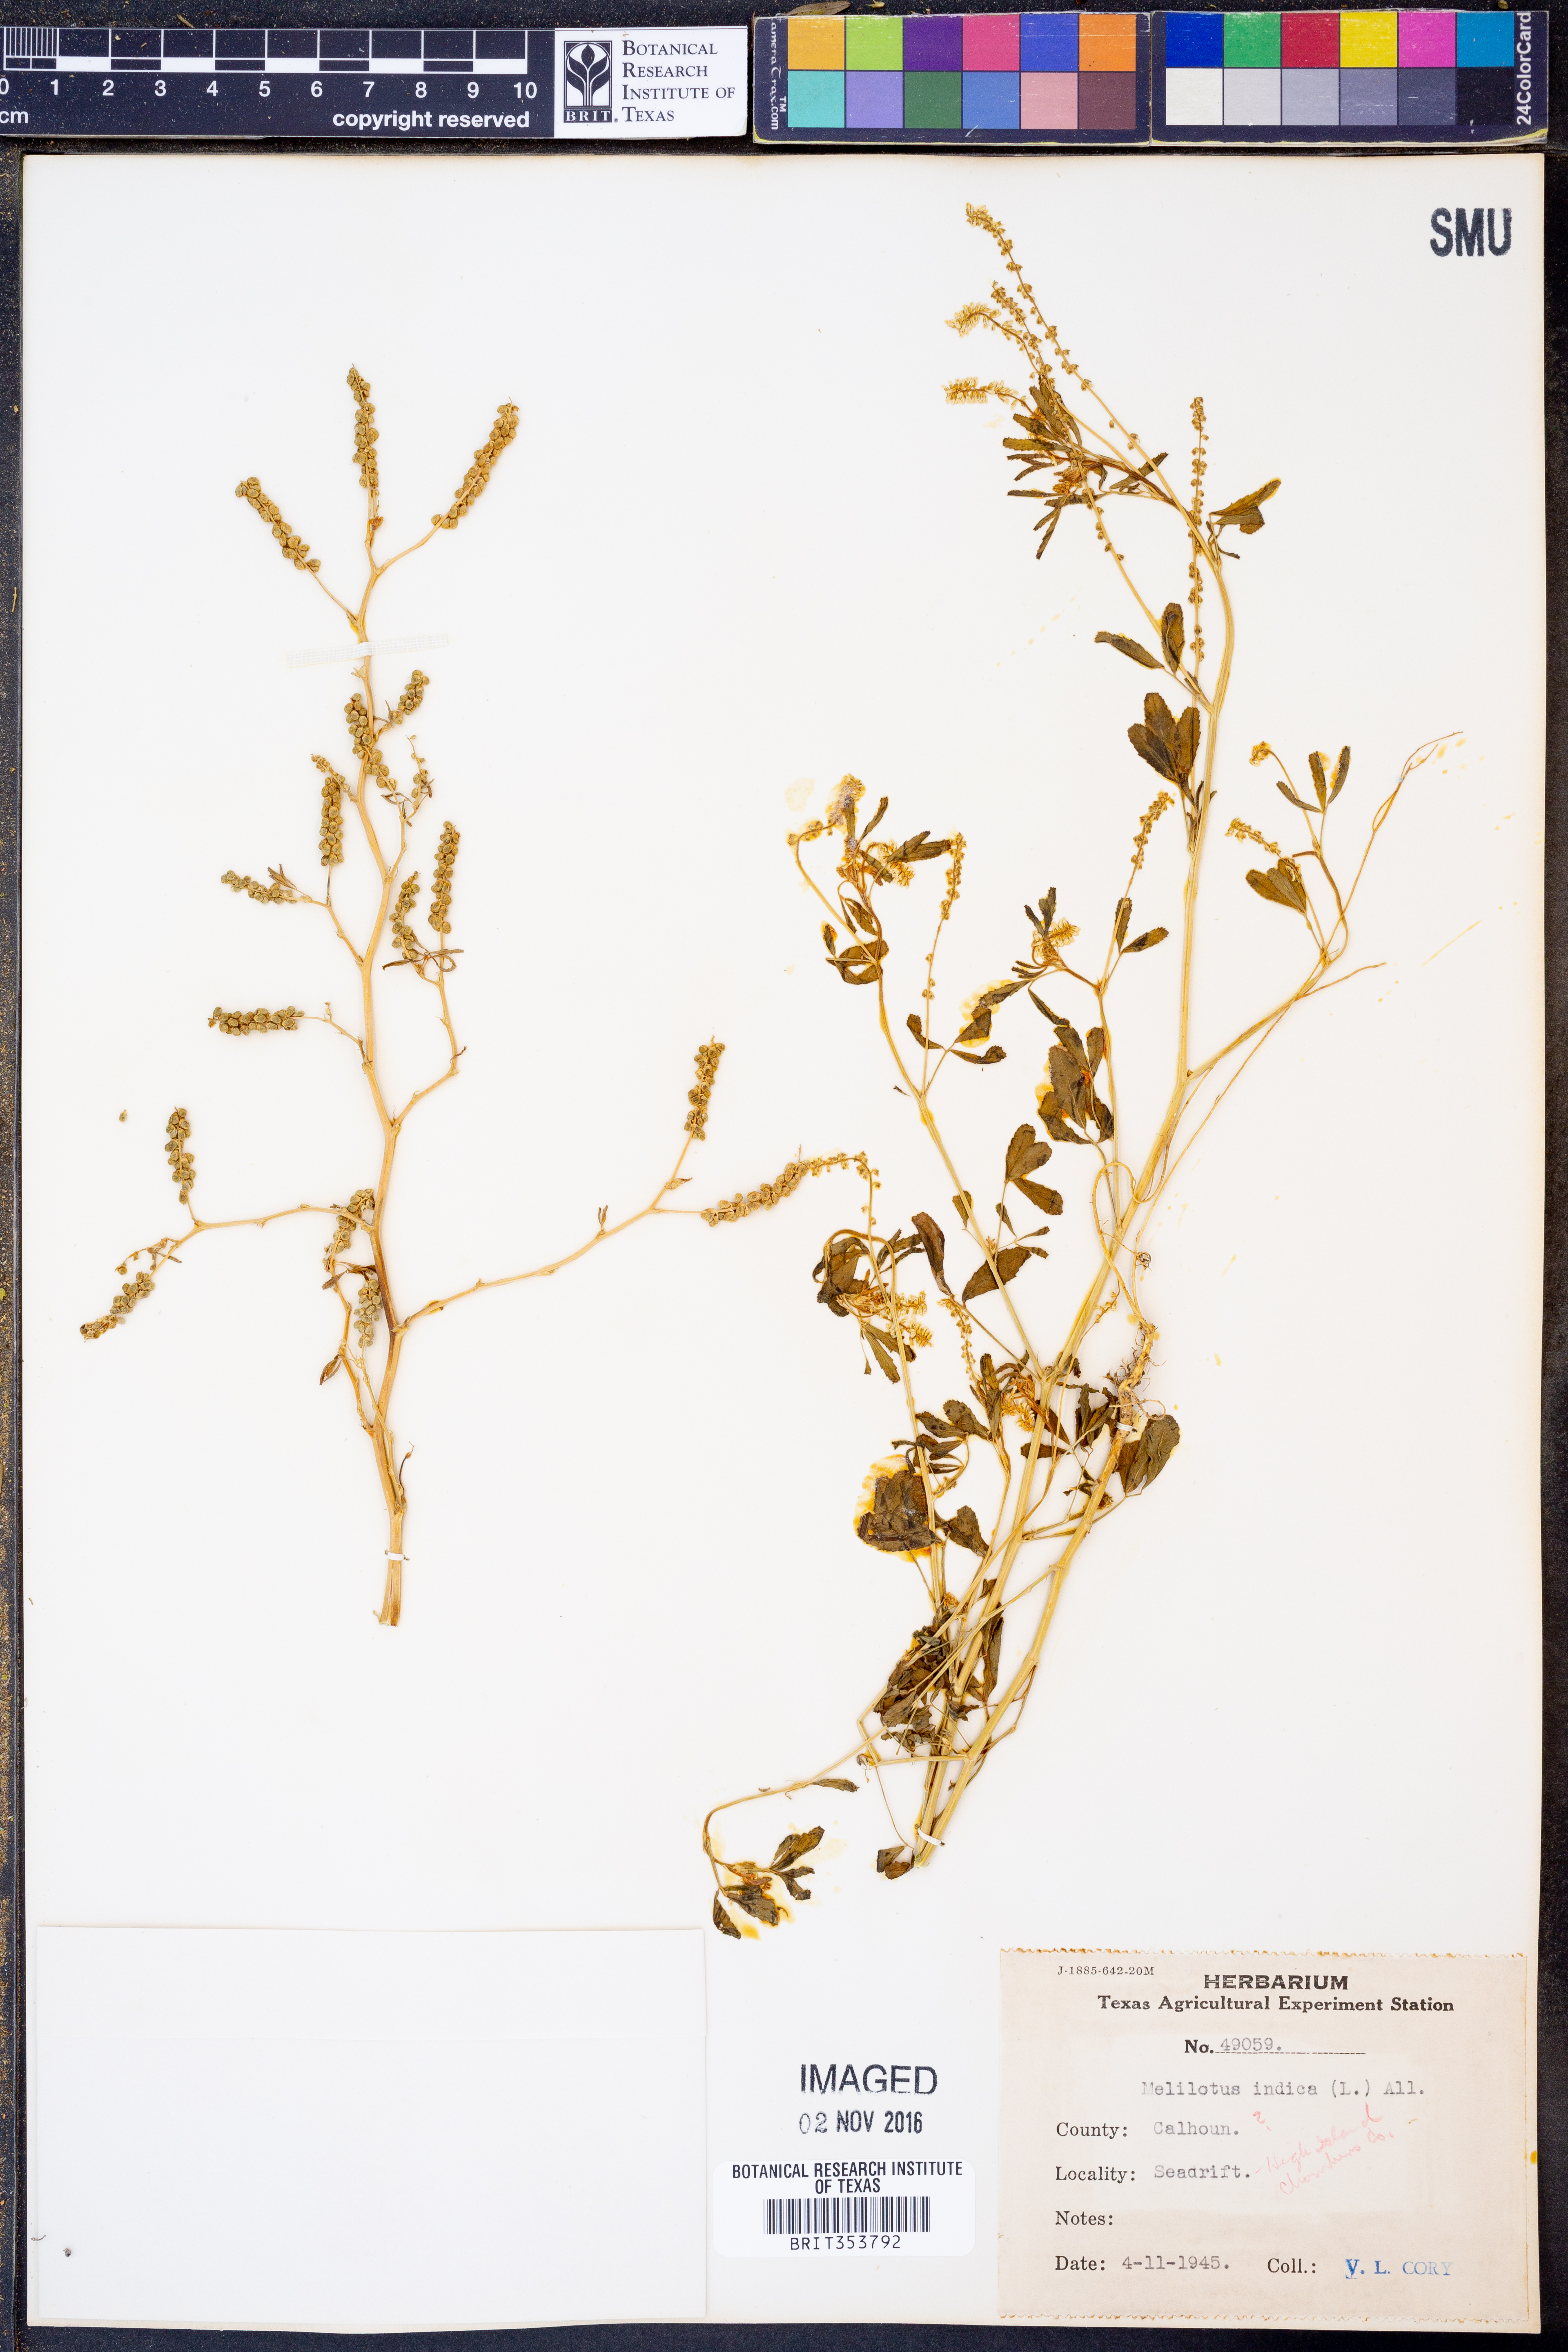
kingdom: Plantae
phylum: Tracheophyta
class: Magnoliopsida
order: Fabales
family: Fabaceae
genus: Melilotus
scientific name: Melilotus indicus
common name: Small melilot
